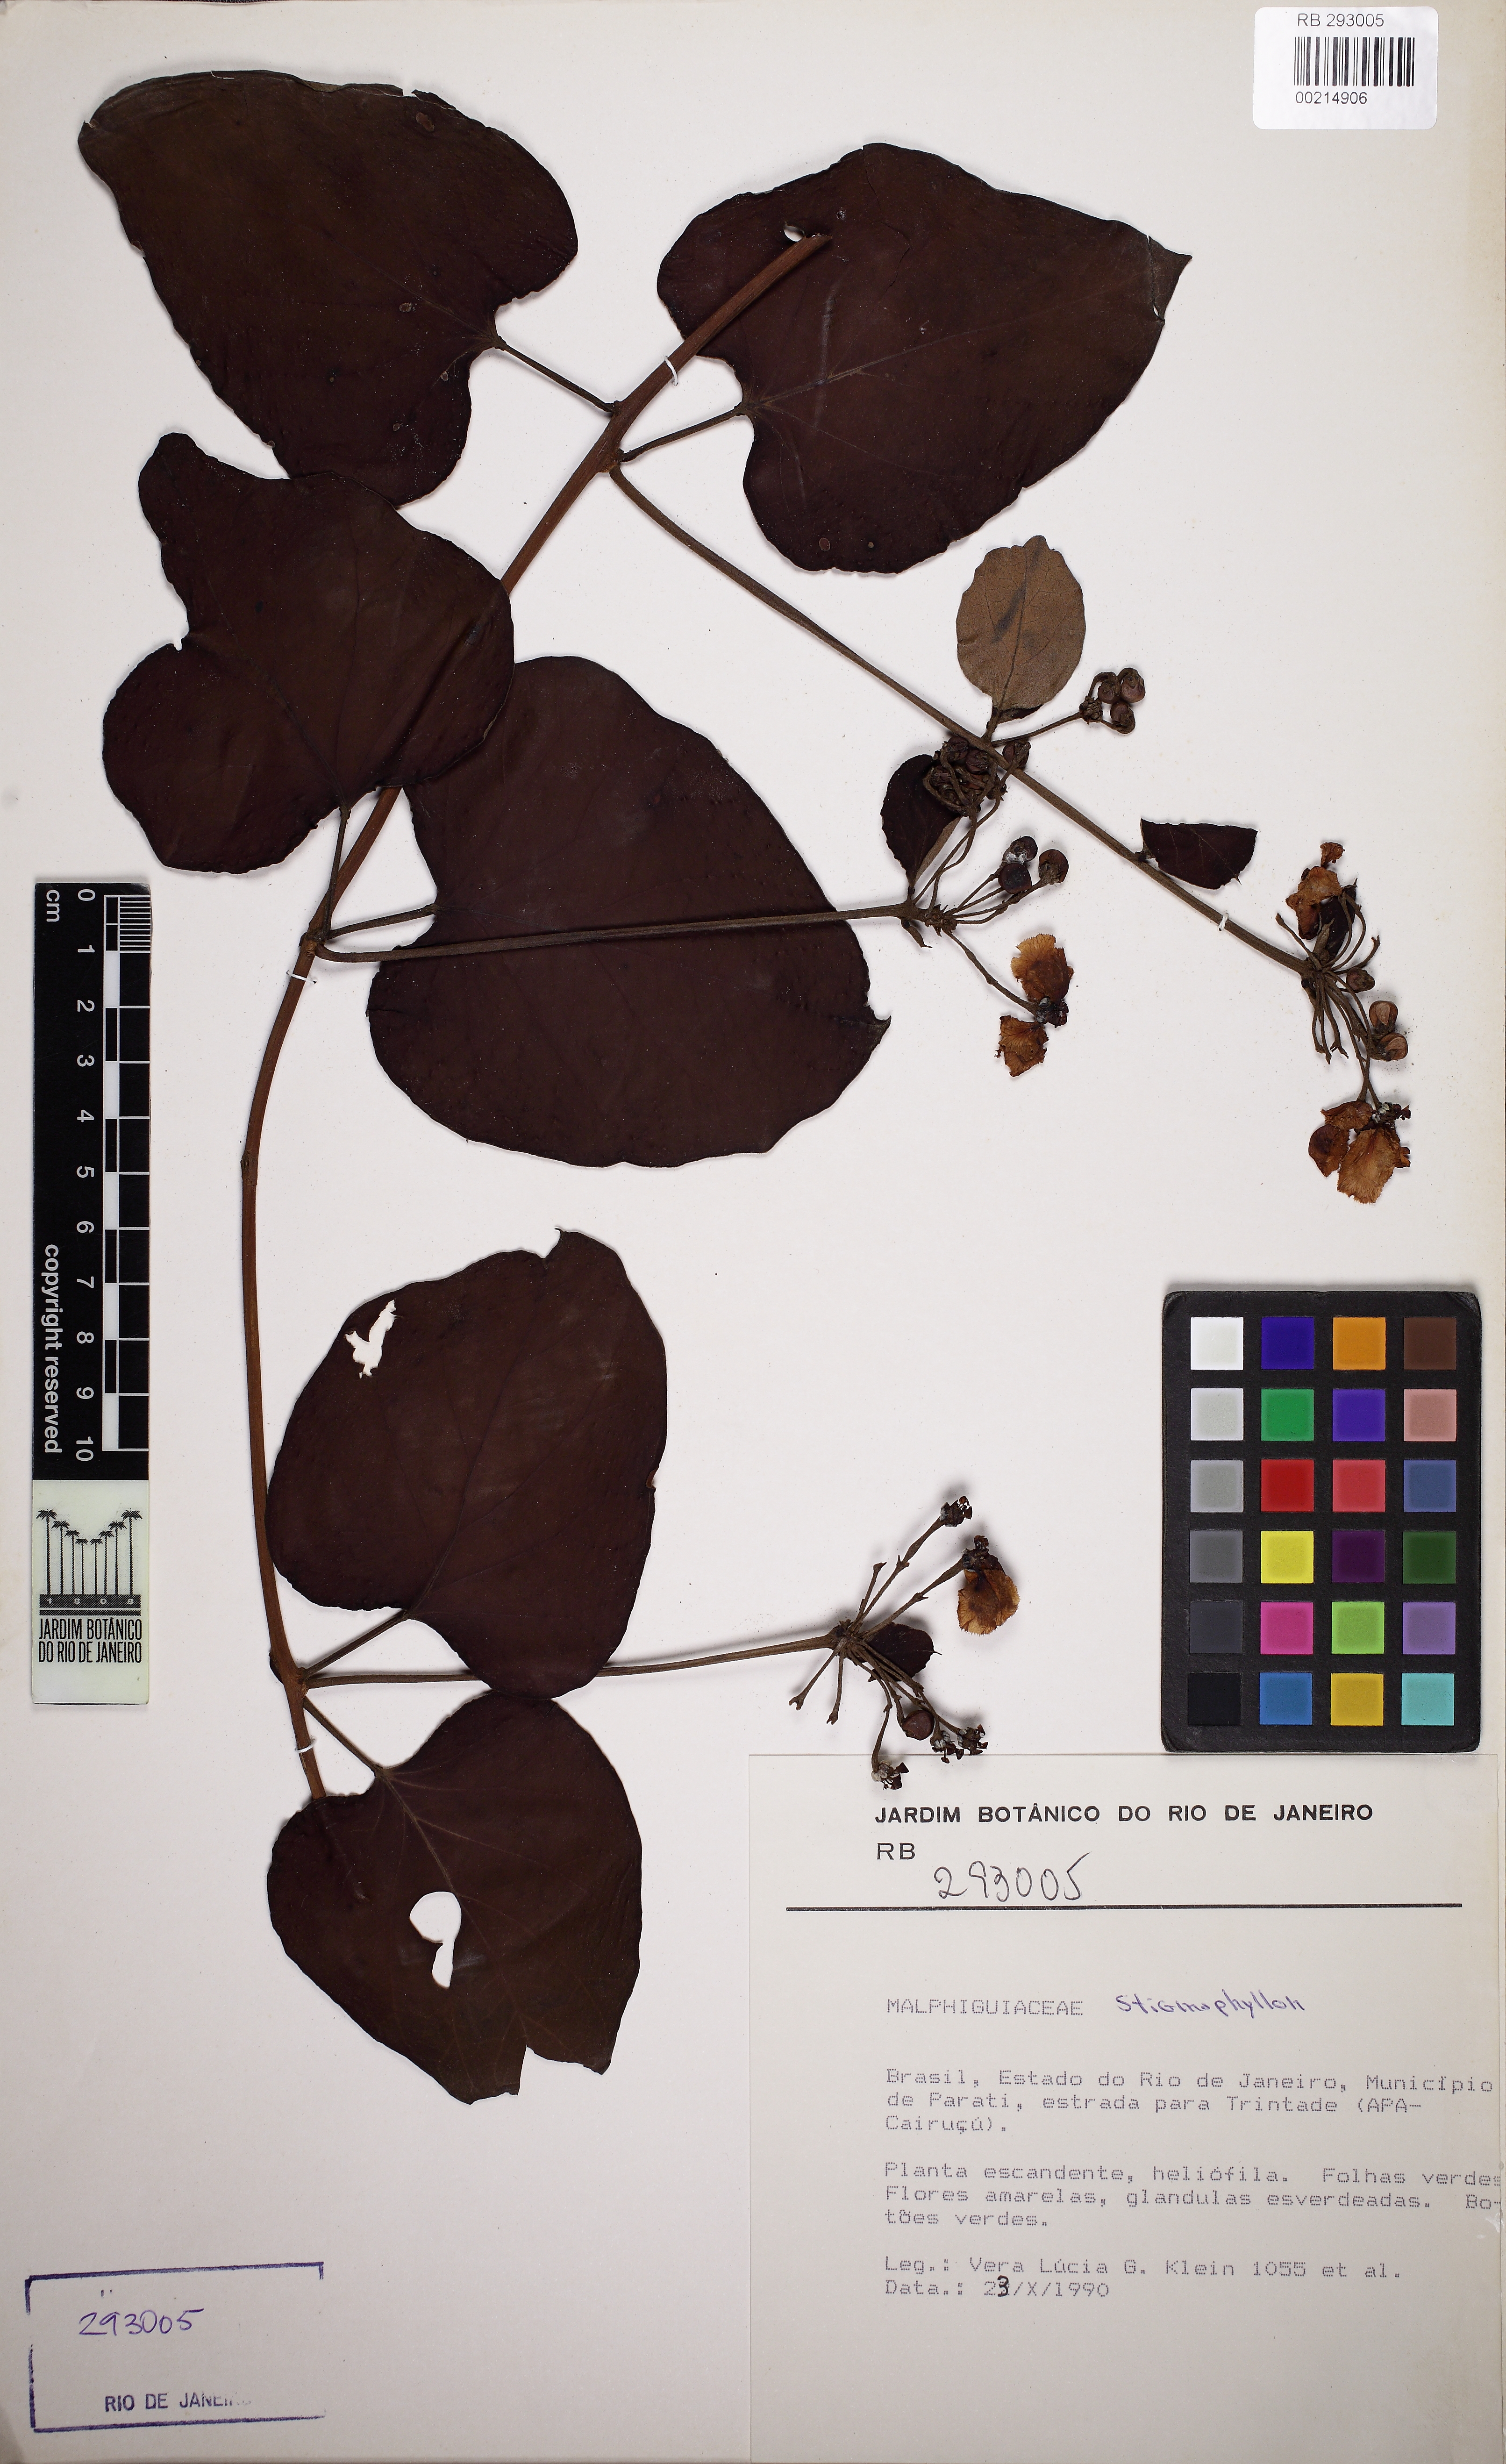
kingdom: Plantae
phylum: Tracheophyta
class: Magnoliopsida
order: Malpighiales
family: Malpighiaceae
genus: Stigmaphyllon
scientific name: Stigmaphyllon lalandianum
